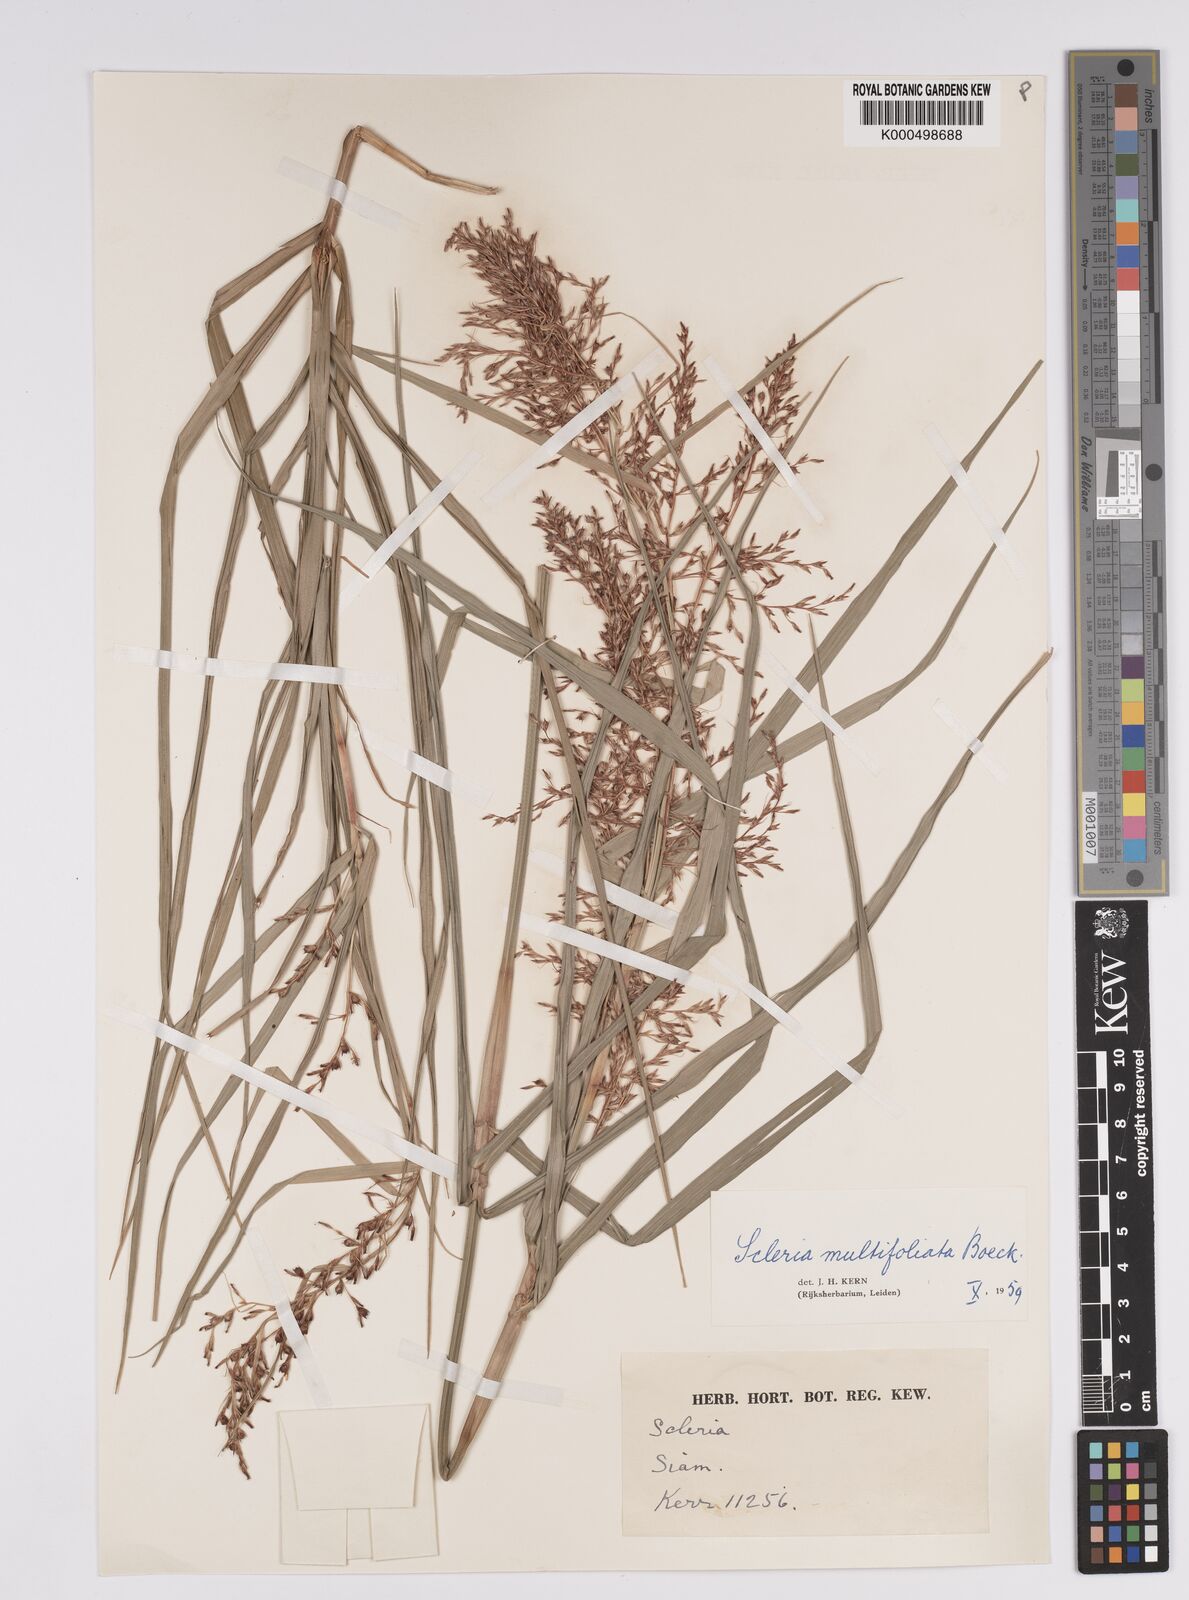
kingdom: Plantae
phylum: Tracheophyta
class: Liliopsida
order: Poales
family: Cyperaceae
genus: Scleria
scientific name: Scleria purpurascens
